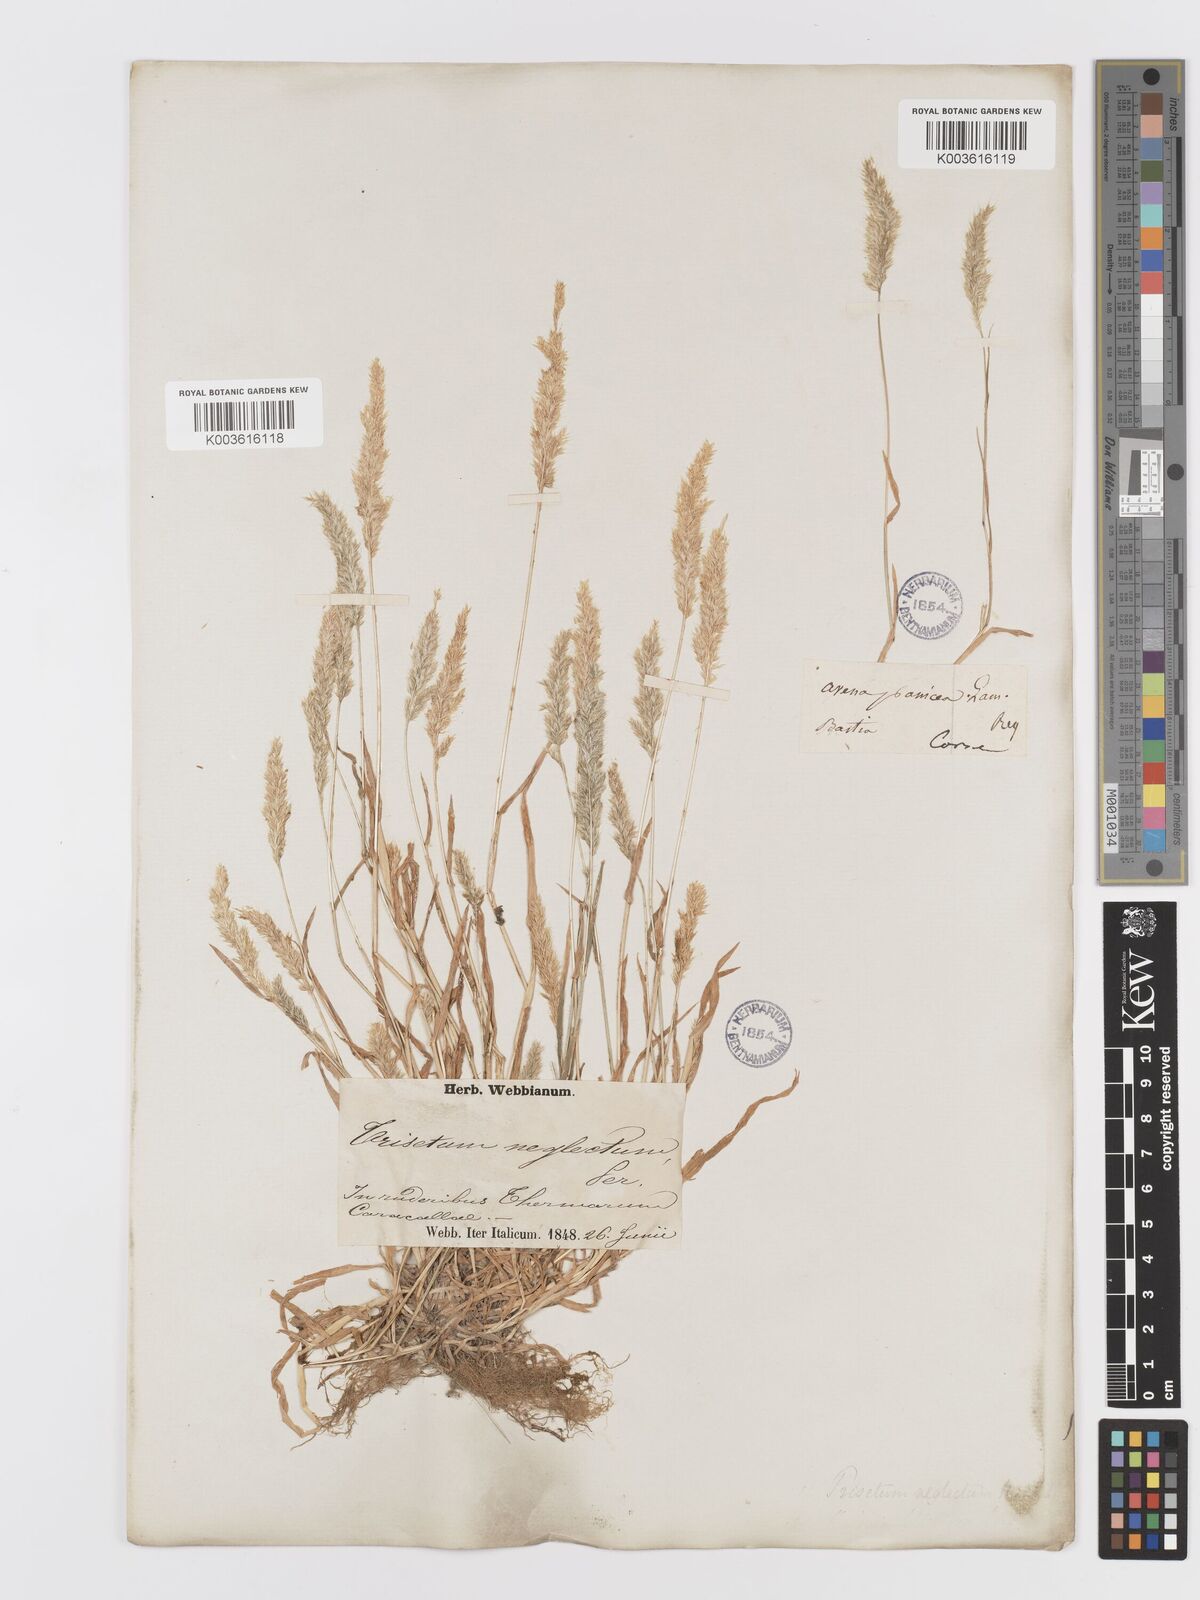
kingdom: Plantae
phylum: Tracheophyta
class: Liliopsida
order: Poales
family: Poaceae
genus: Trisetaria
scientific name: Trisetaria panicea
